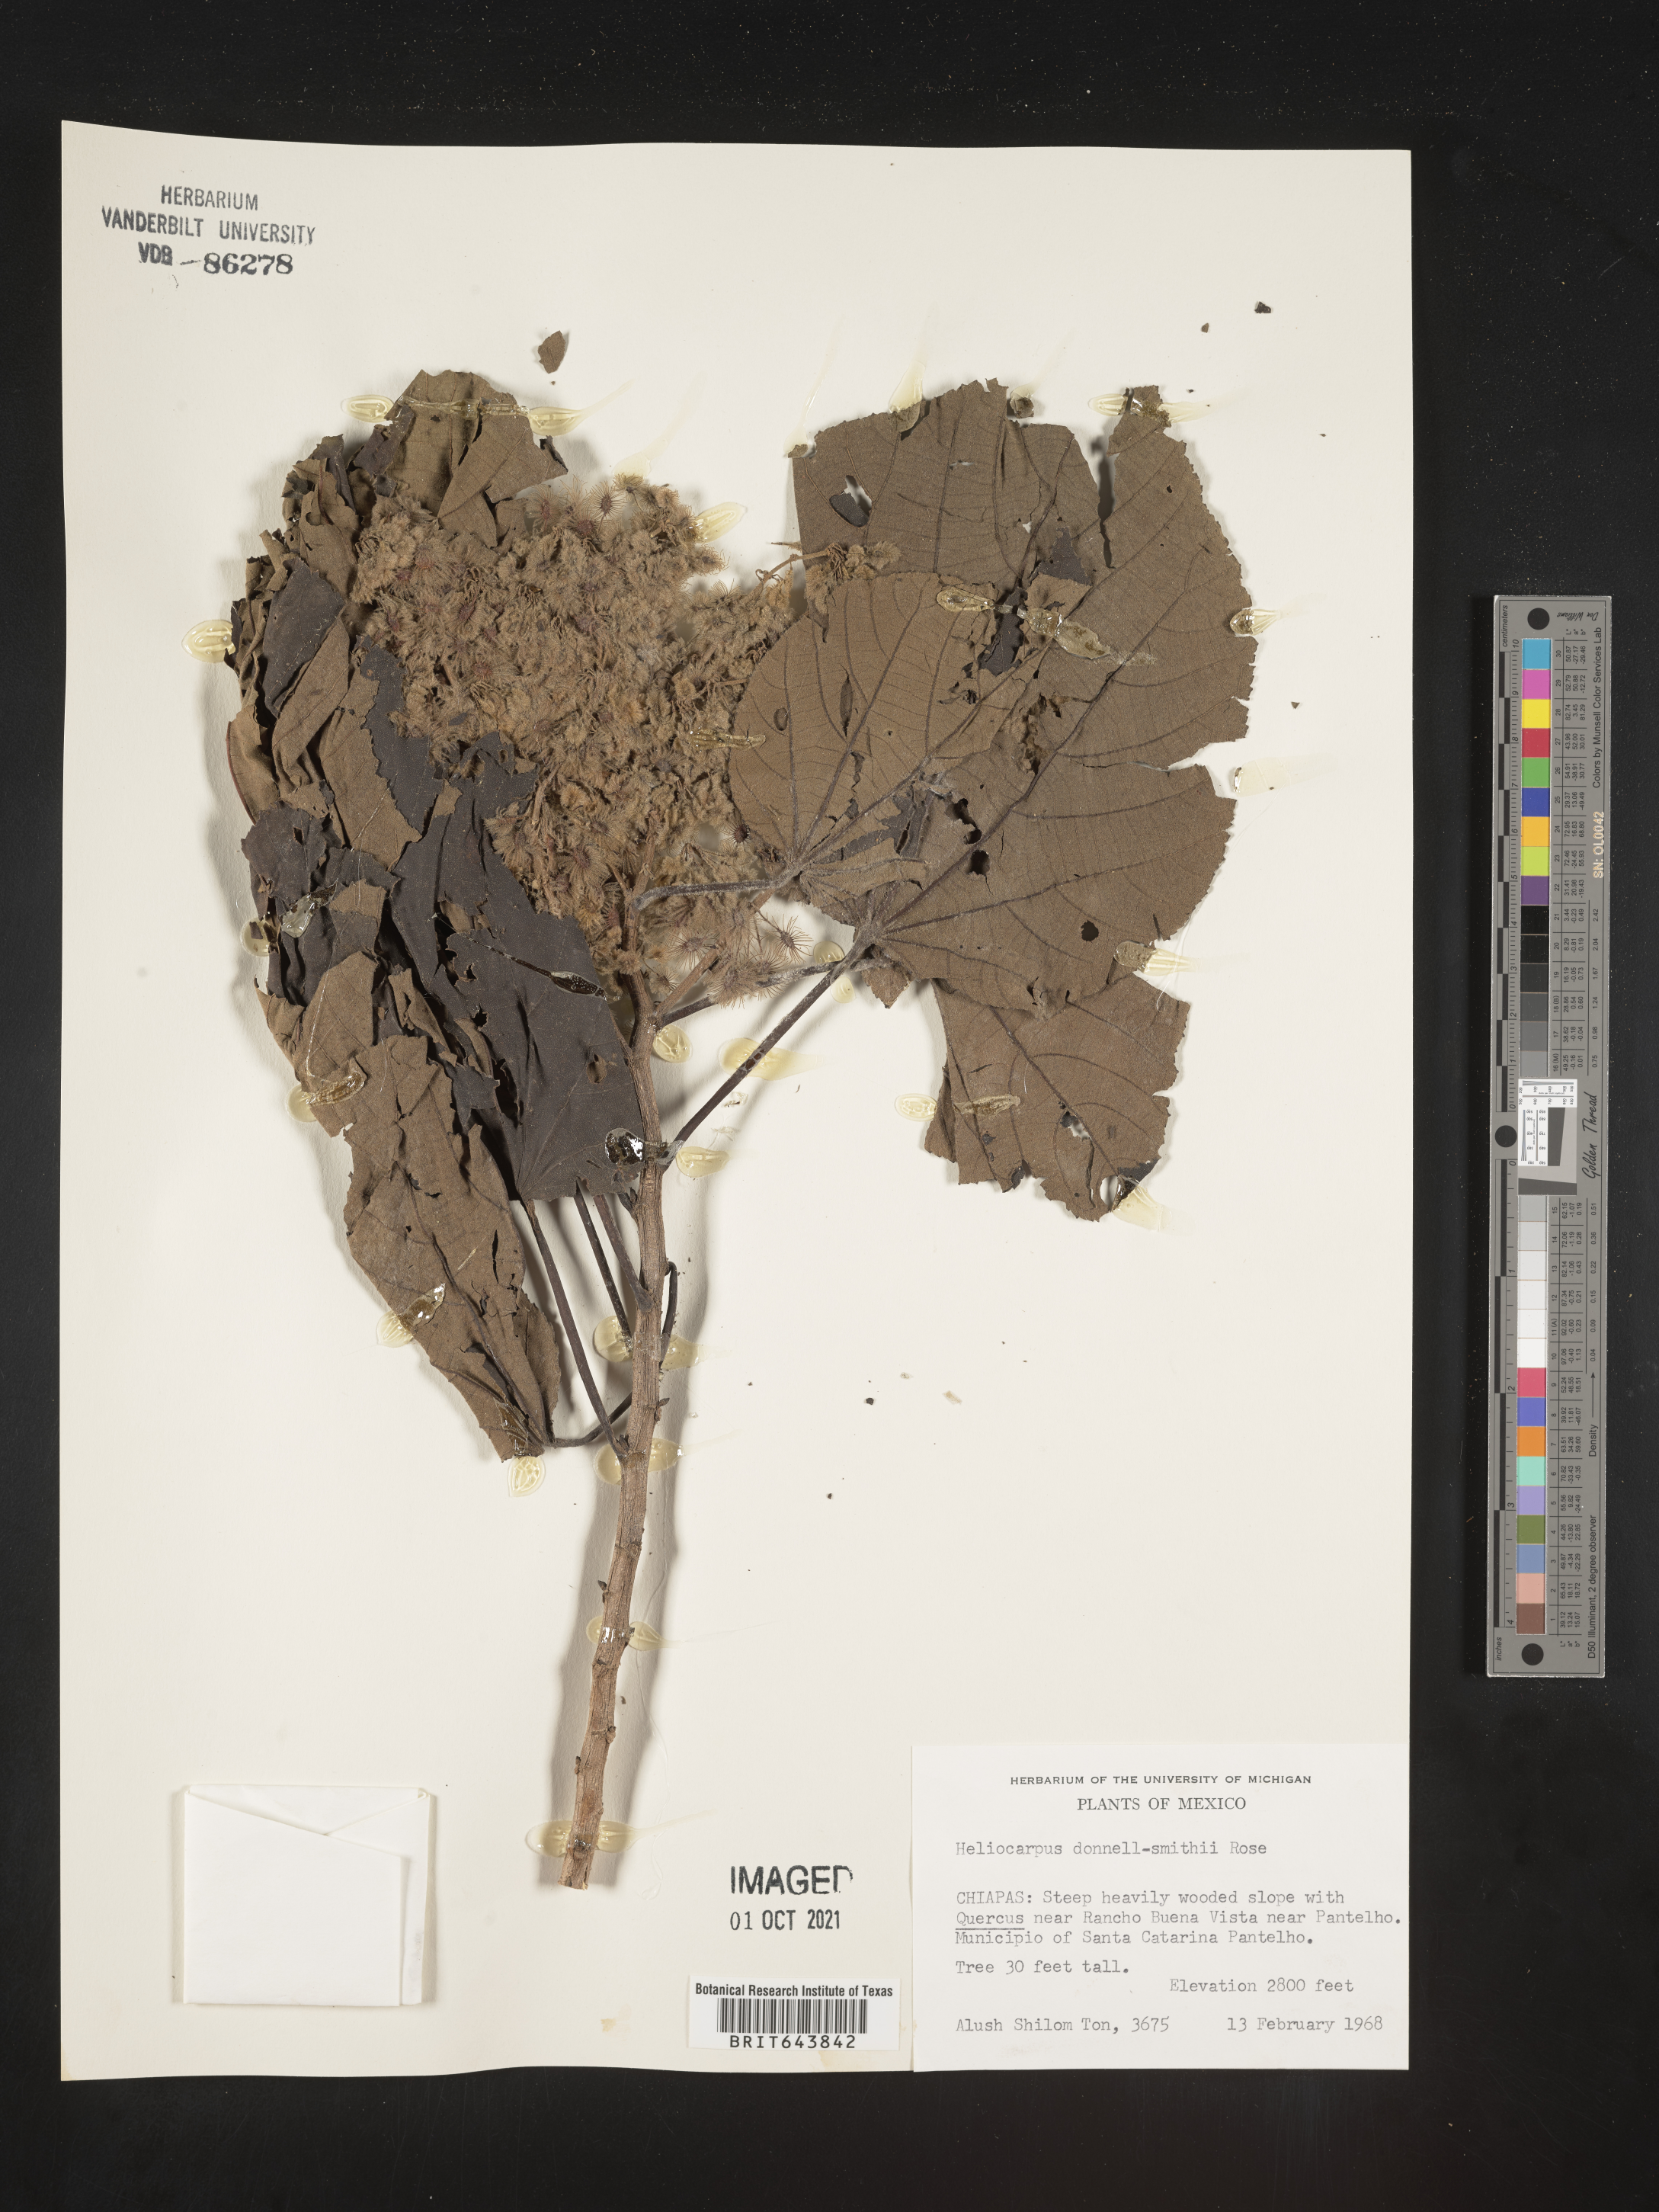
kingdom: Plantae
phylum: Tracheophyta
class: Magnoliopsida
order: Malvales
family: Malvaceae
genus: Heliocarpus
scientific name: Heliocarpus
